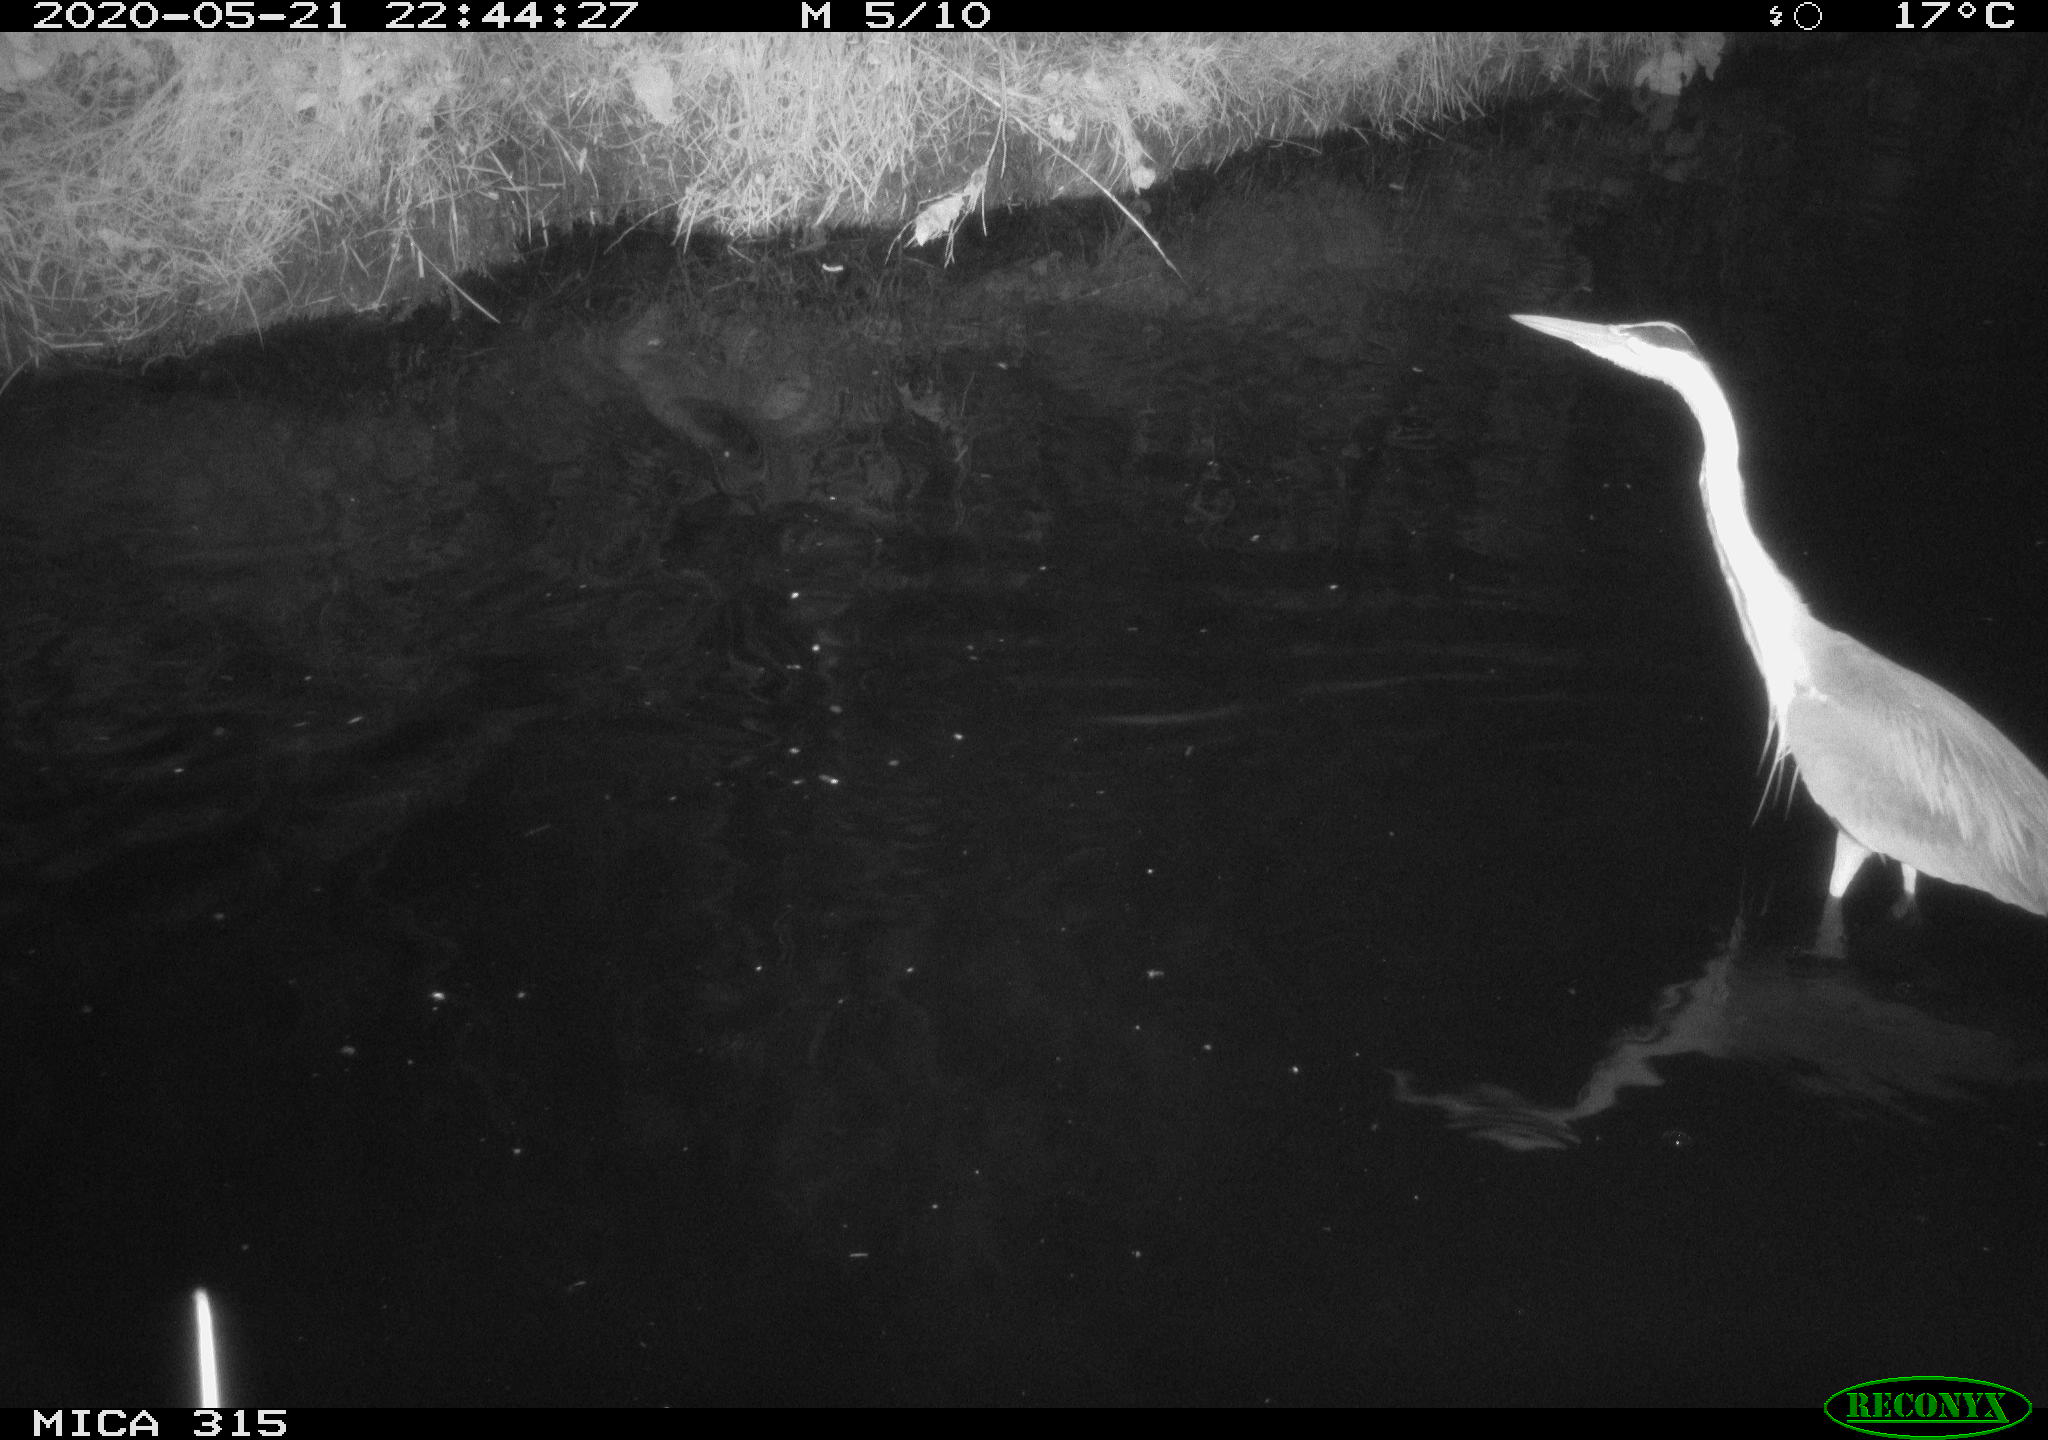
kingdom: Animalia
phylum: Chordata
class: Aves
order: Pelecaniformes
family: Ardeidae
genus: Ardea
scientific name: Ardea cinerea
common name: Grey heron
